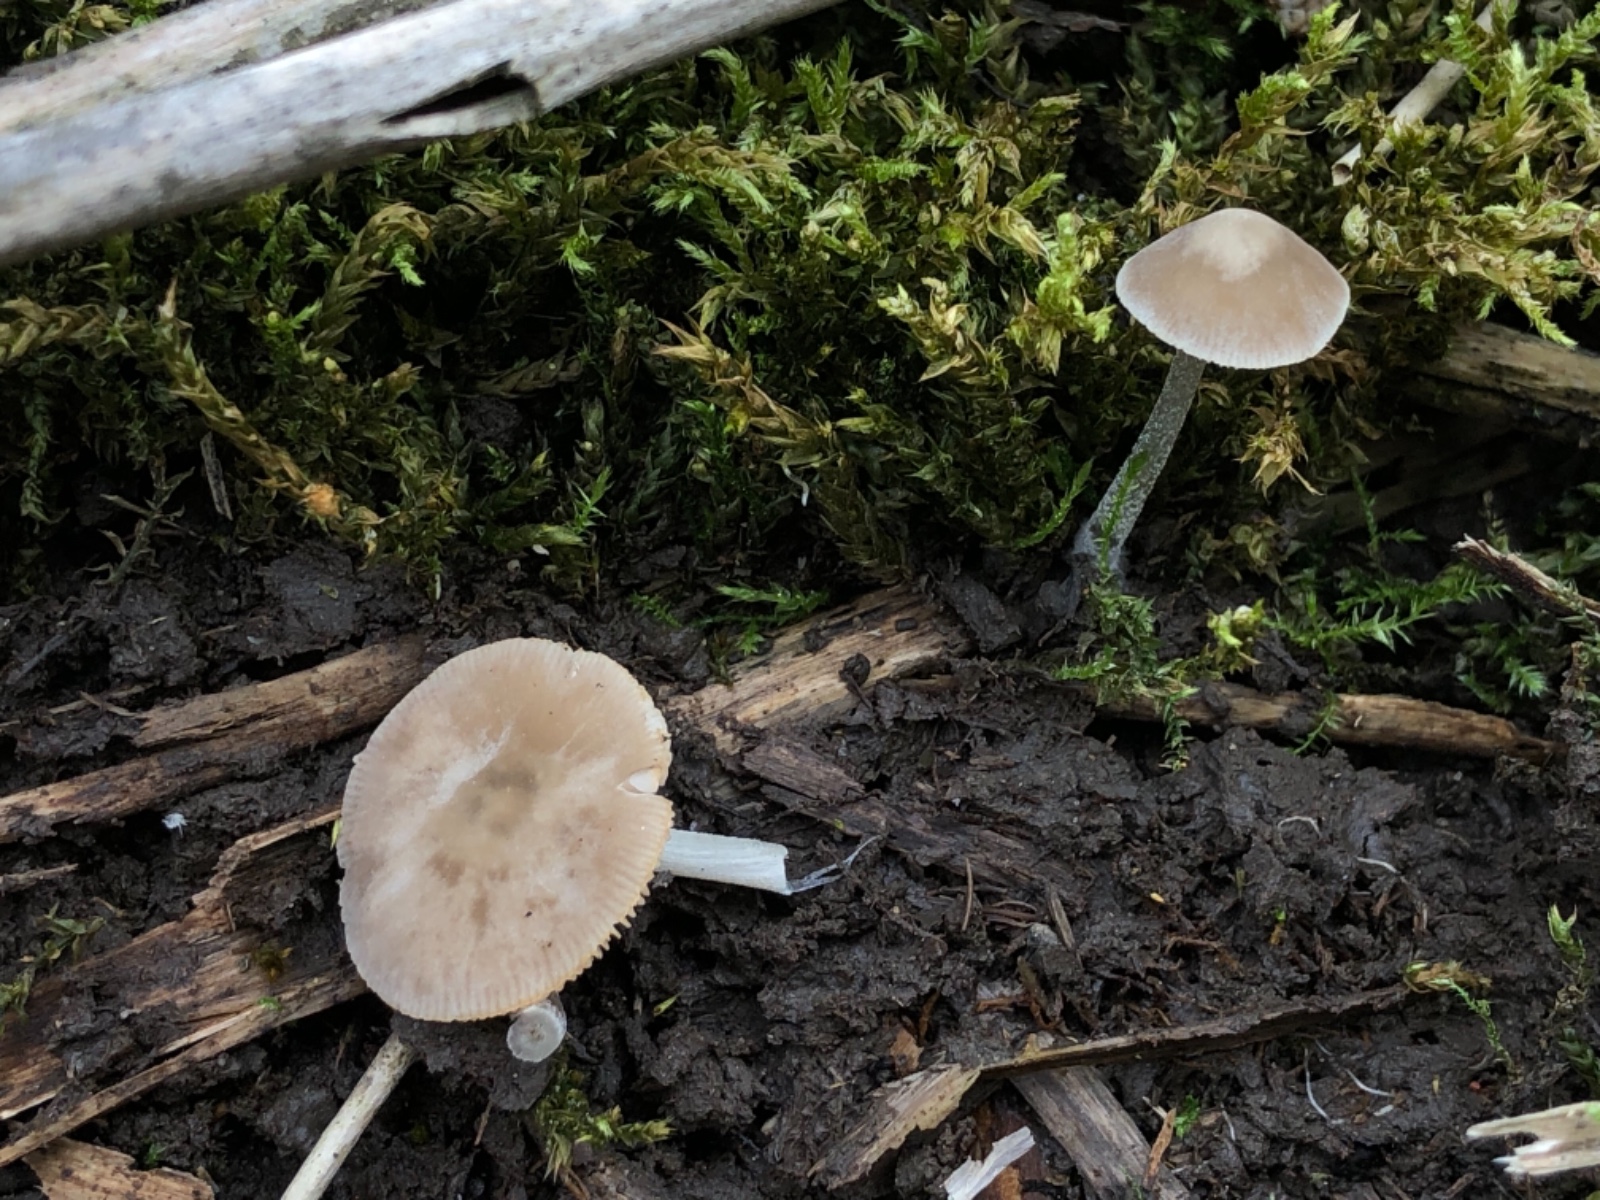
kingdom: Fungi
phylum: Basidiomycota
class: Agaricomycetes
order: Agaricales
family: Pluteaceae
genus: Pluteus
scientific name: Pluteus thomsonii
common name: Veined shield
